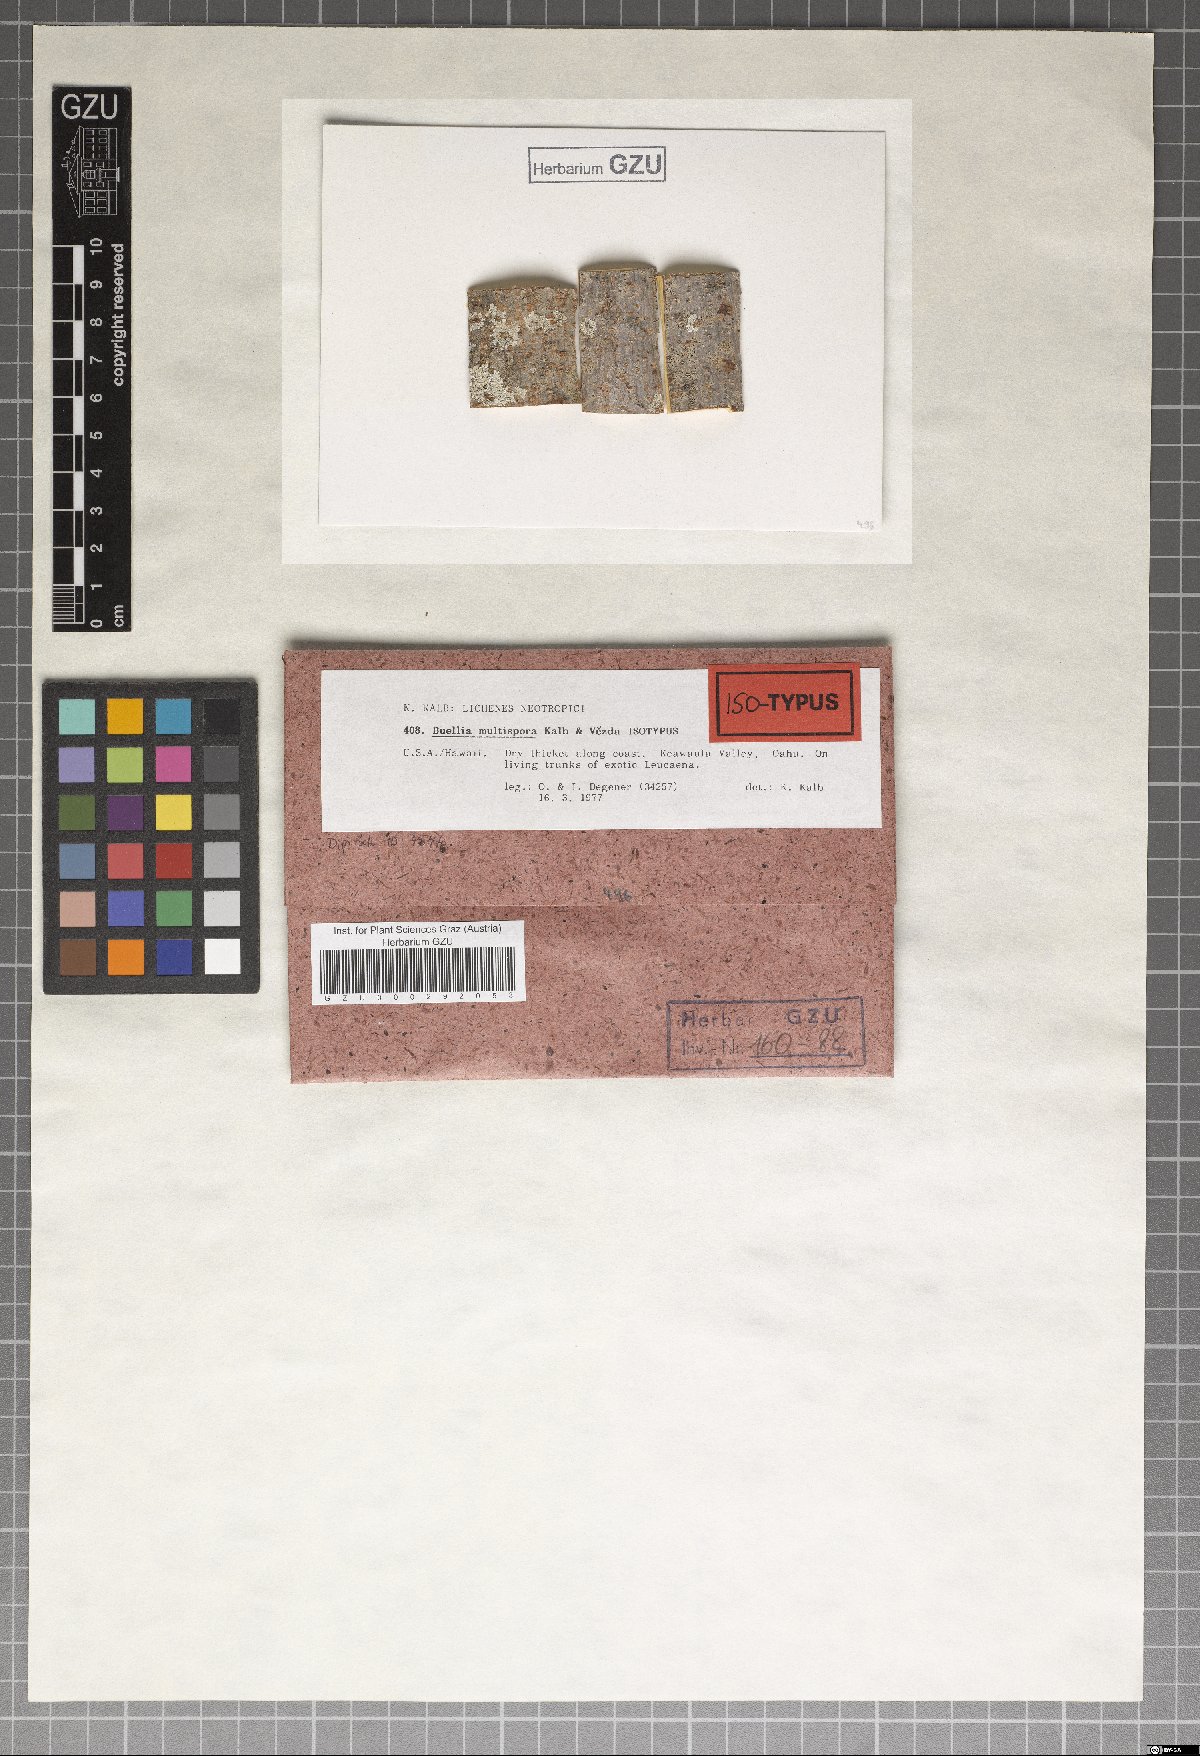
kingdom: Fungi
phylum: Ascomycota
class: Lecanoromycetes
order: Caliciales
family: Caliciaceae
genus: Buellia
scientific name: Buellia multispora
